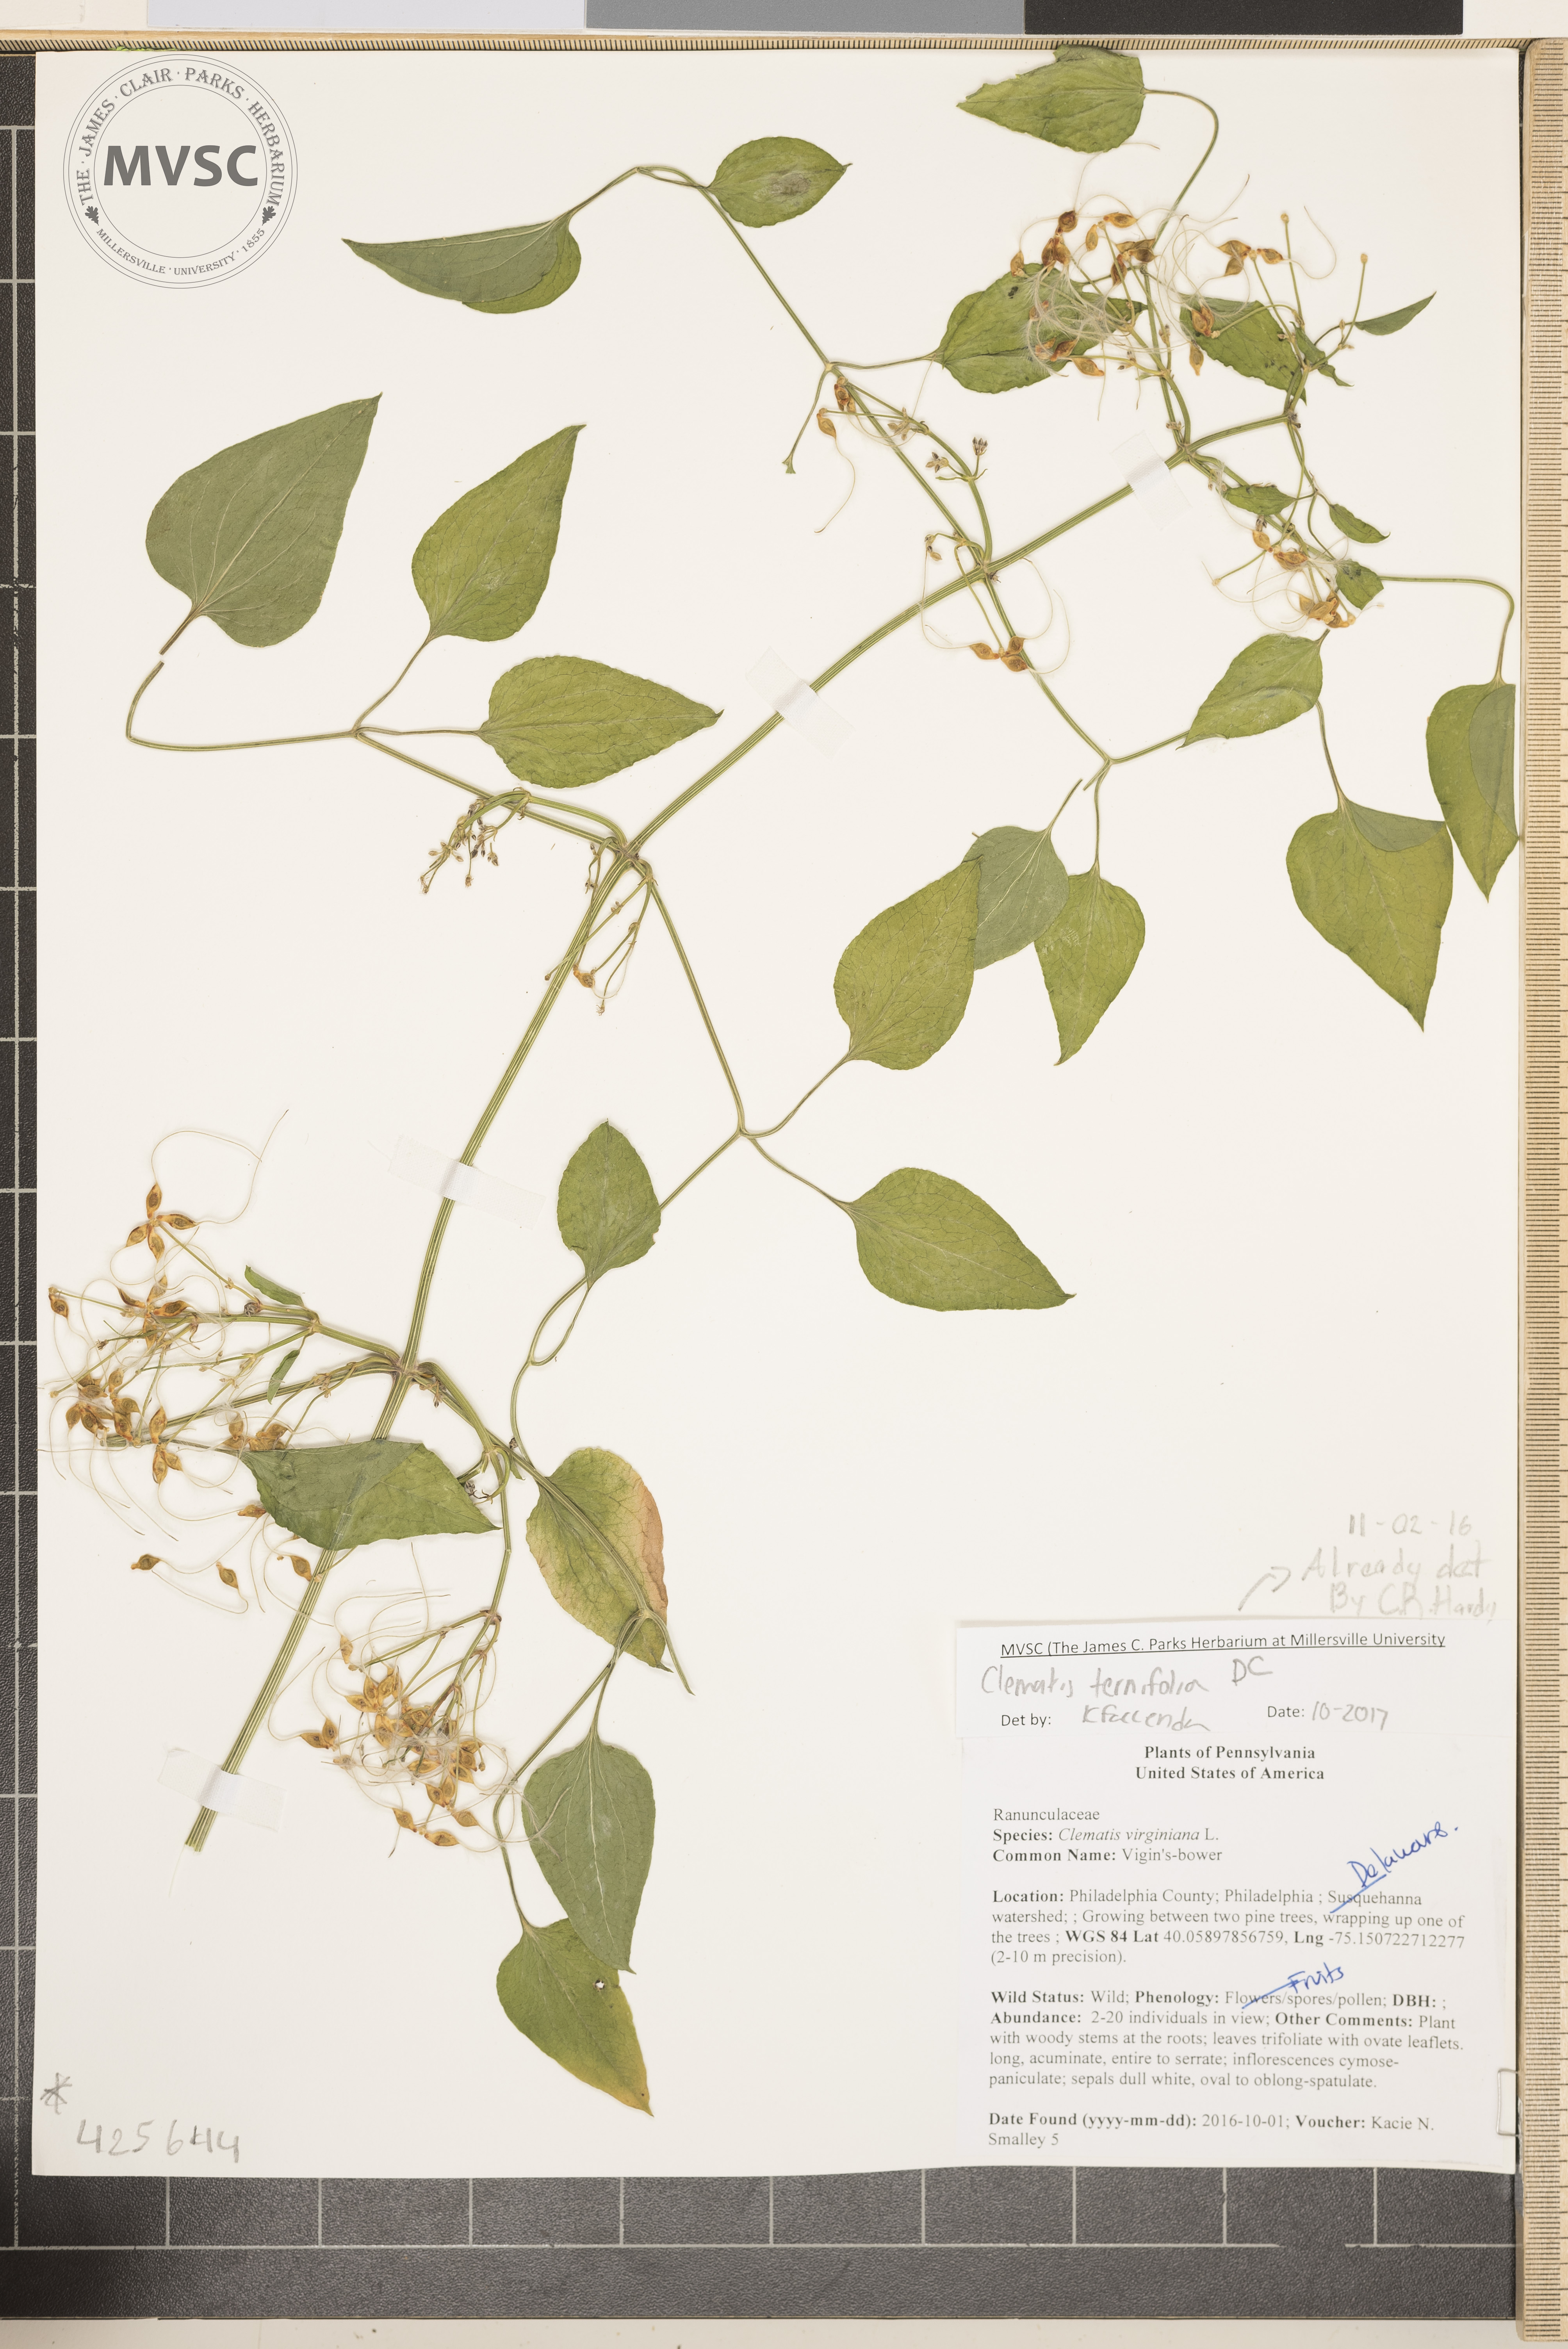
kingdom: Plantae
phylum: Tracheophyta
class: Magnoliopsida
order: Ranunculales
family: Ranunculaceae
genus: Clematis
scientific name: Clematis terniflora
